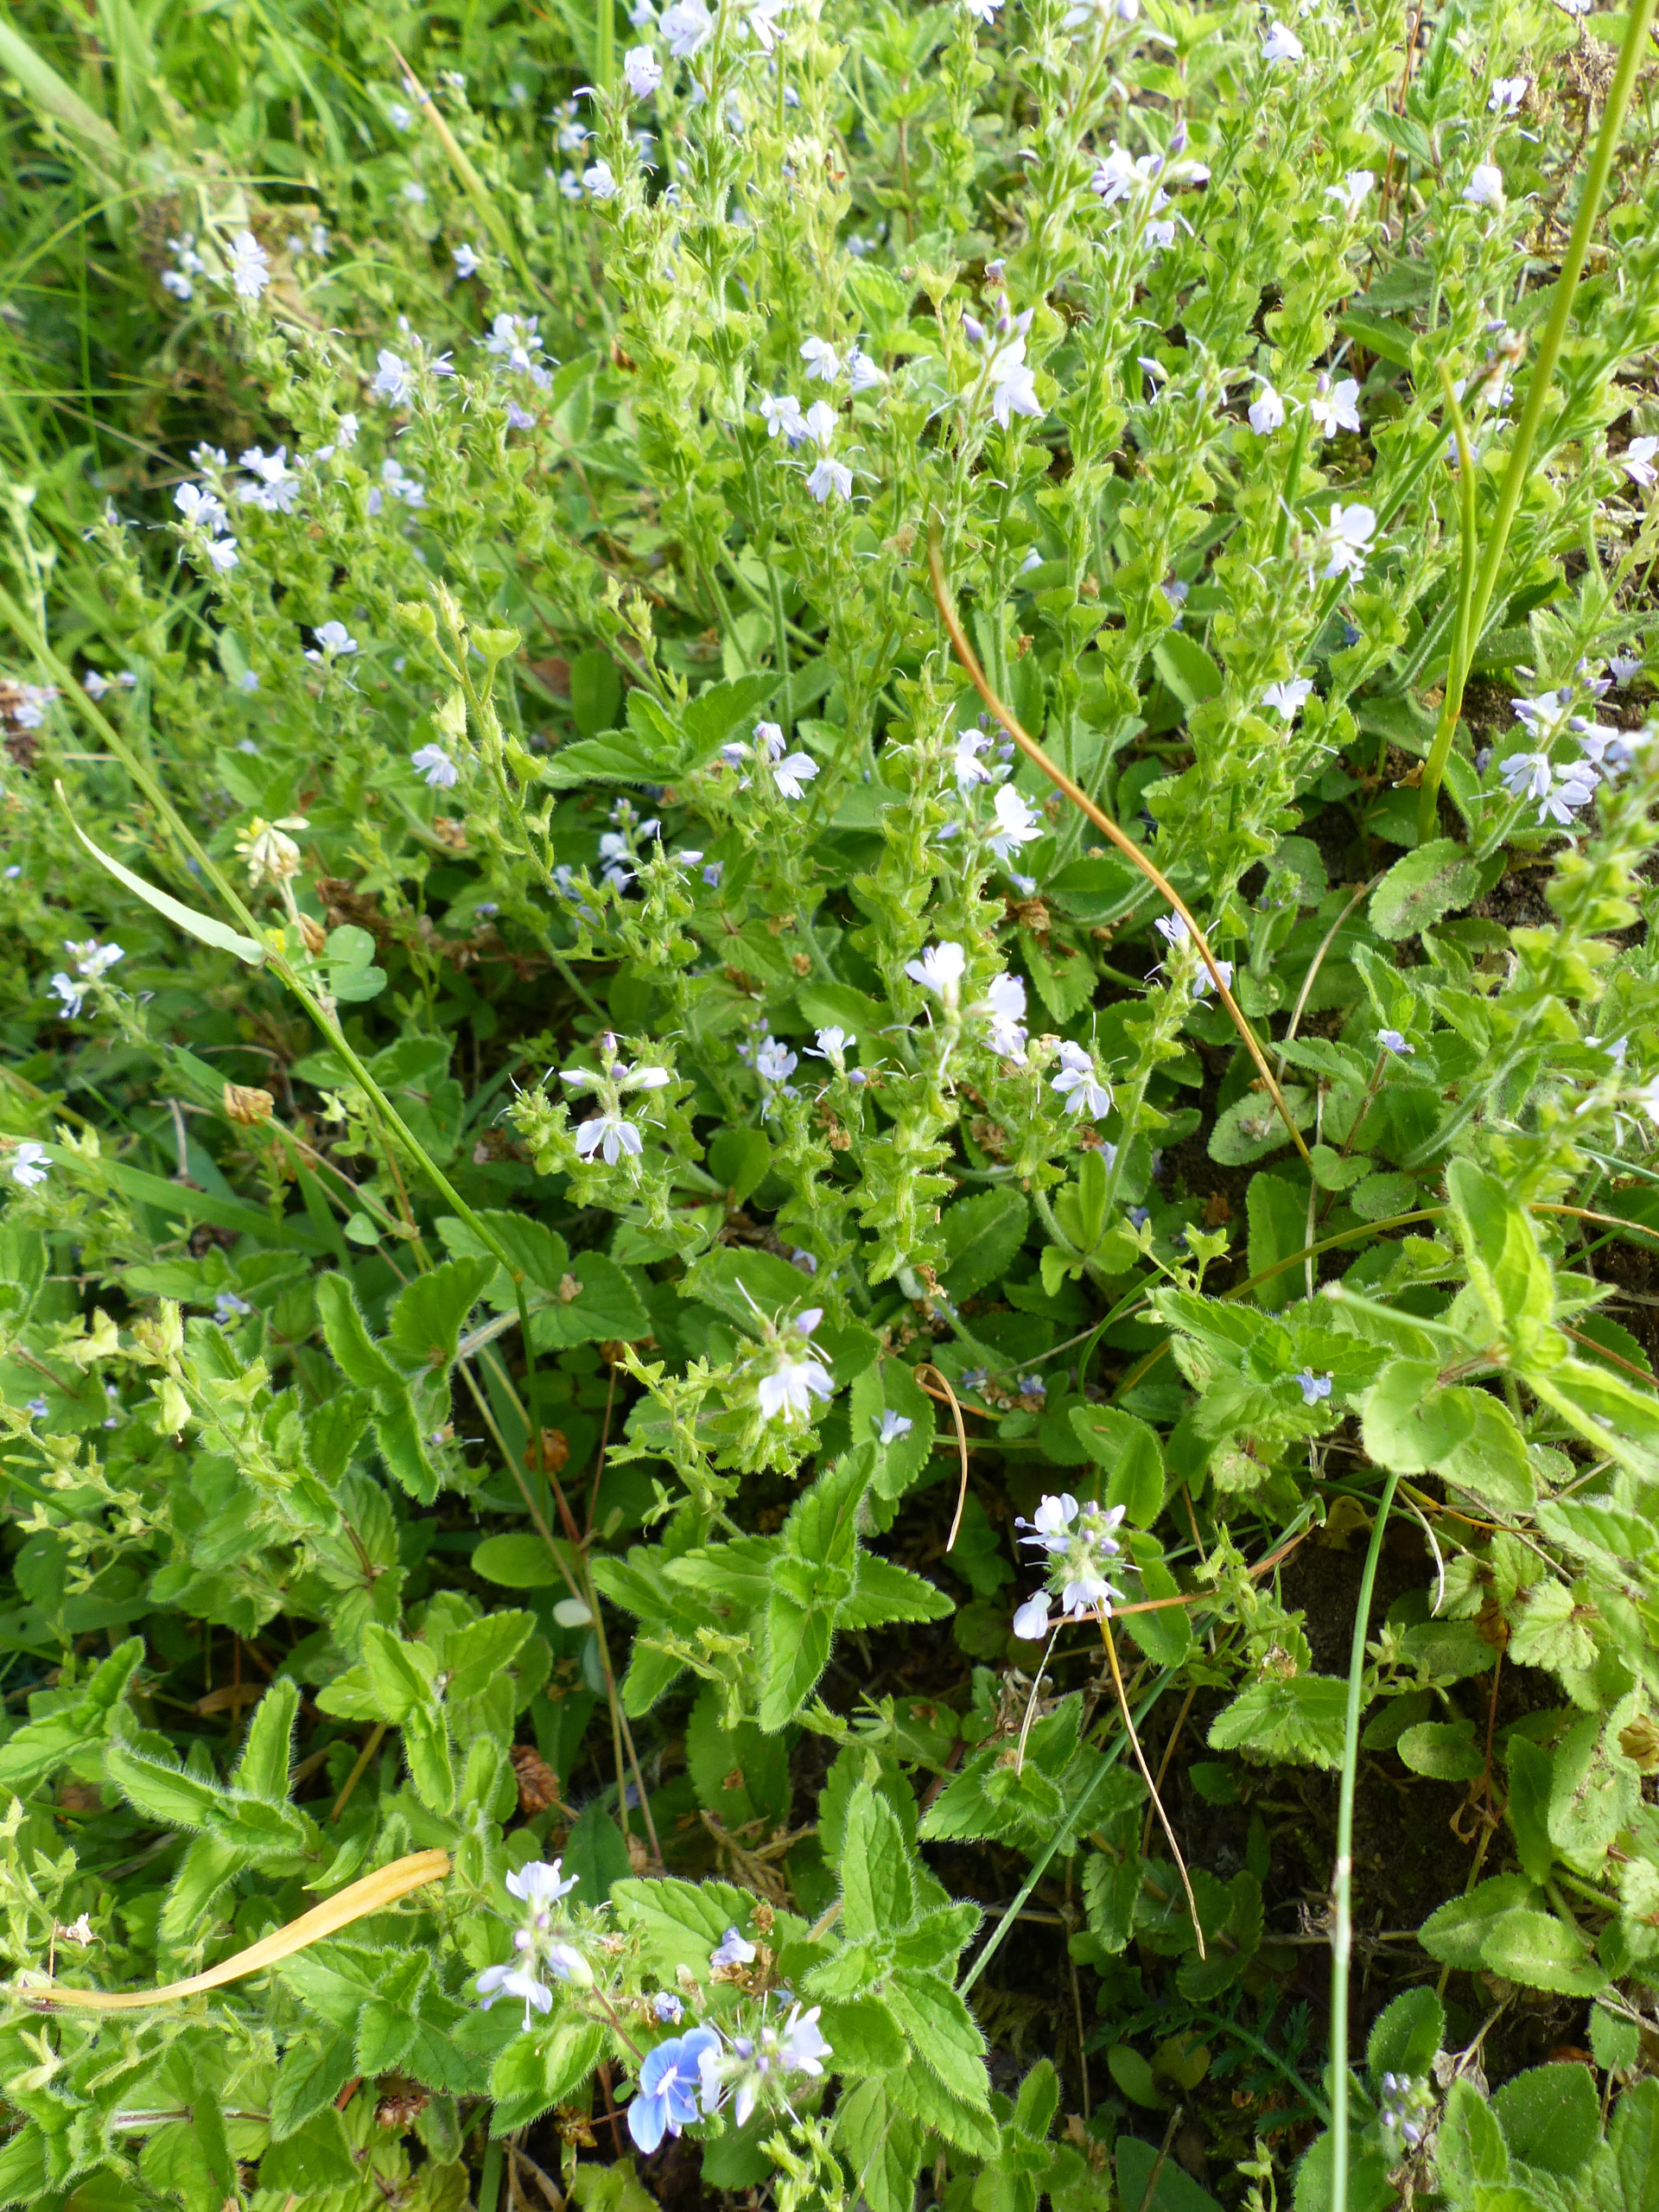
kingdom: Plantae
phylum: Tracheophyta
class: Magnoliopsida
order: Lamiales
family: Plantaginaceae
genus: Veronica
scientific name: Veronica officinalis
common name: Læge-ærenpris
